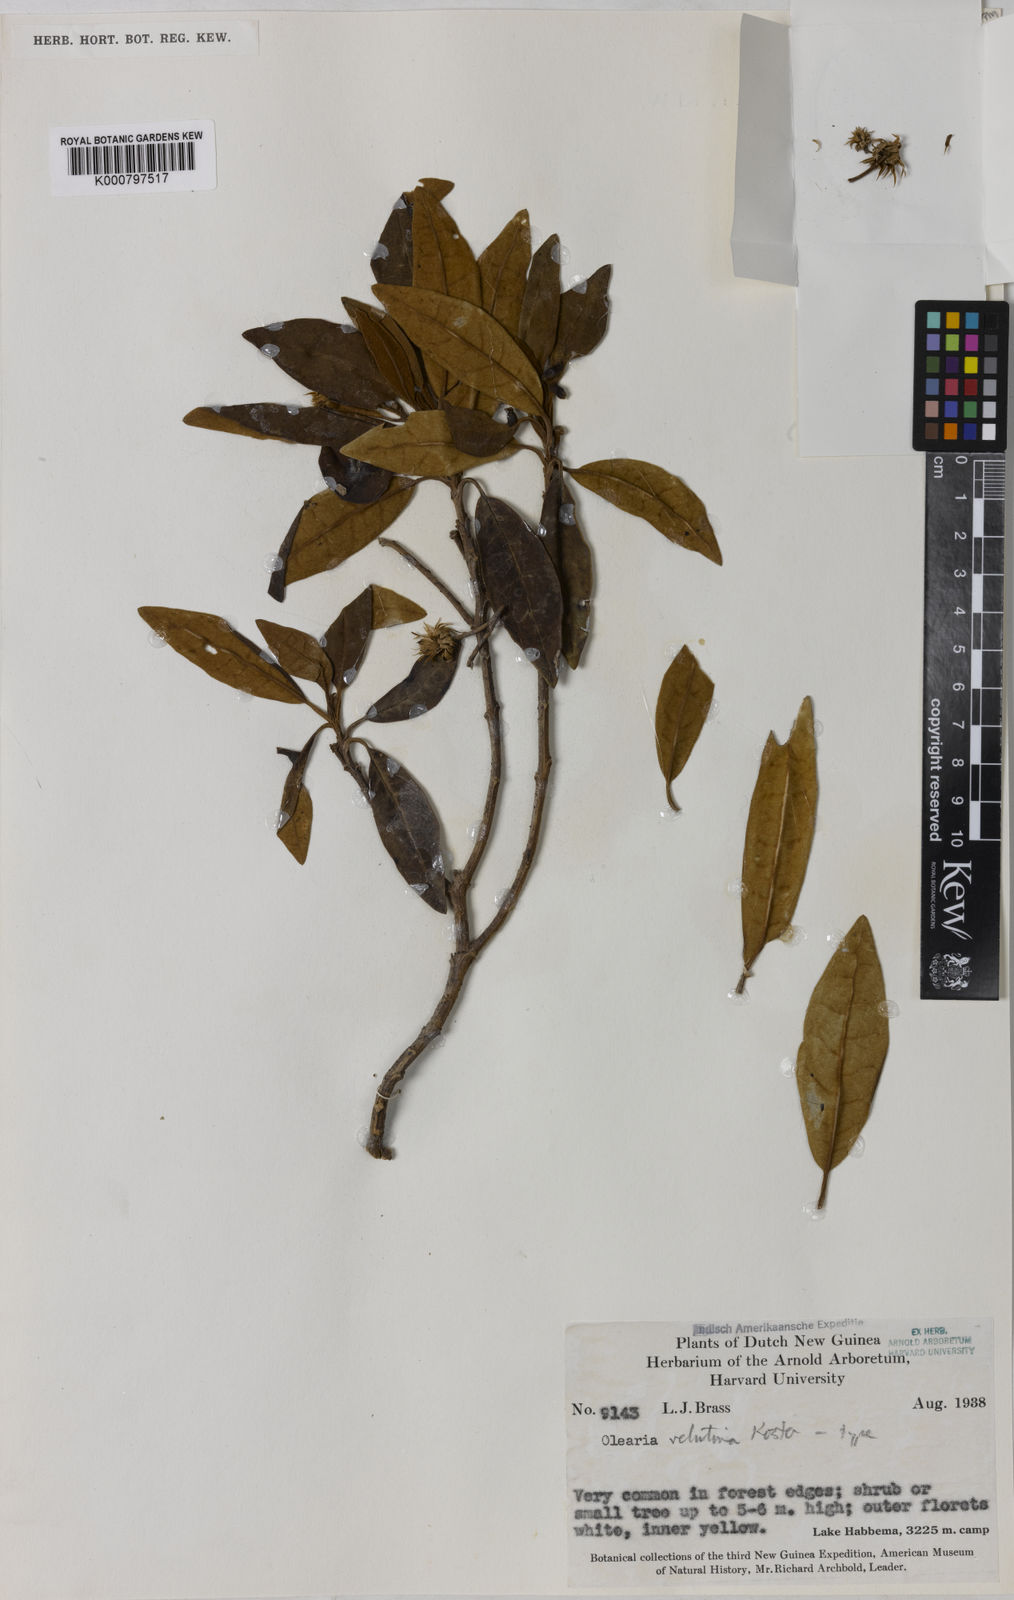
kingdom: Plantae
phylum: Tracheophyta
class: Magnoliopsida
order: Asterales
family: Asteraceae
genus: Olearia
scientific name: Olearia velutina
